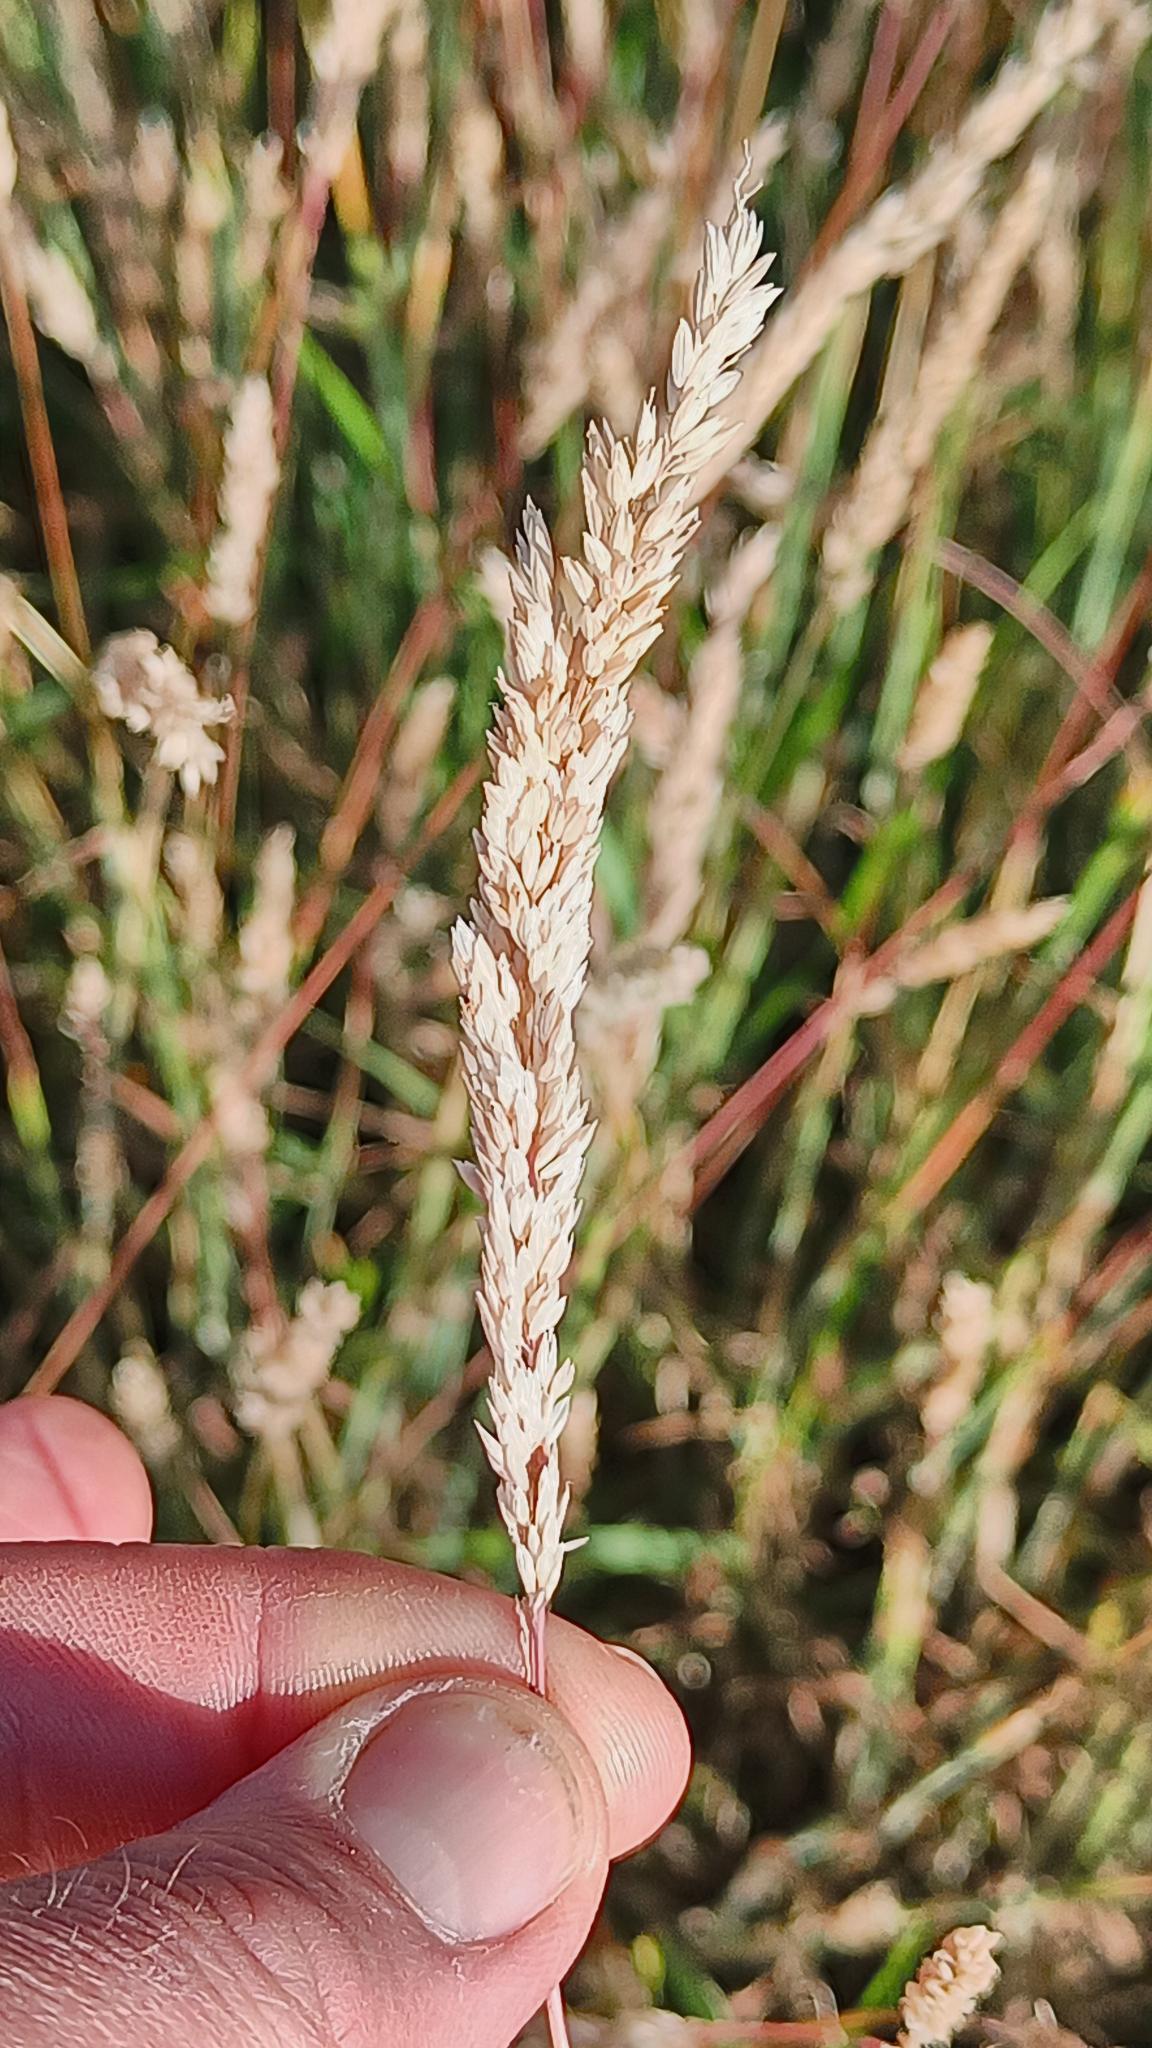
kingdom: Plantae
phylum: Tracheophyta
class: Liliopsida
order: Poales
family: Poaceae
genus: Holcus
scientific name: Holcus lanatus
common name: Fløjlsgræs
